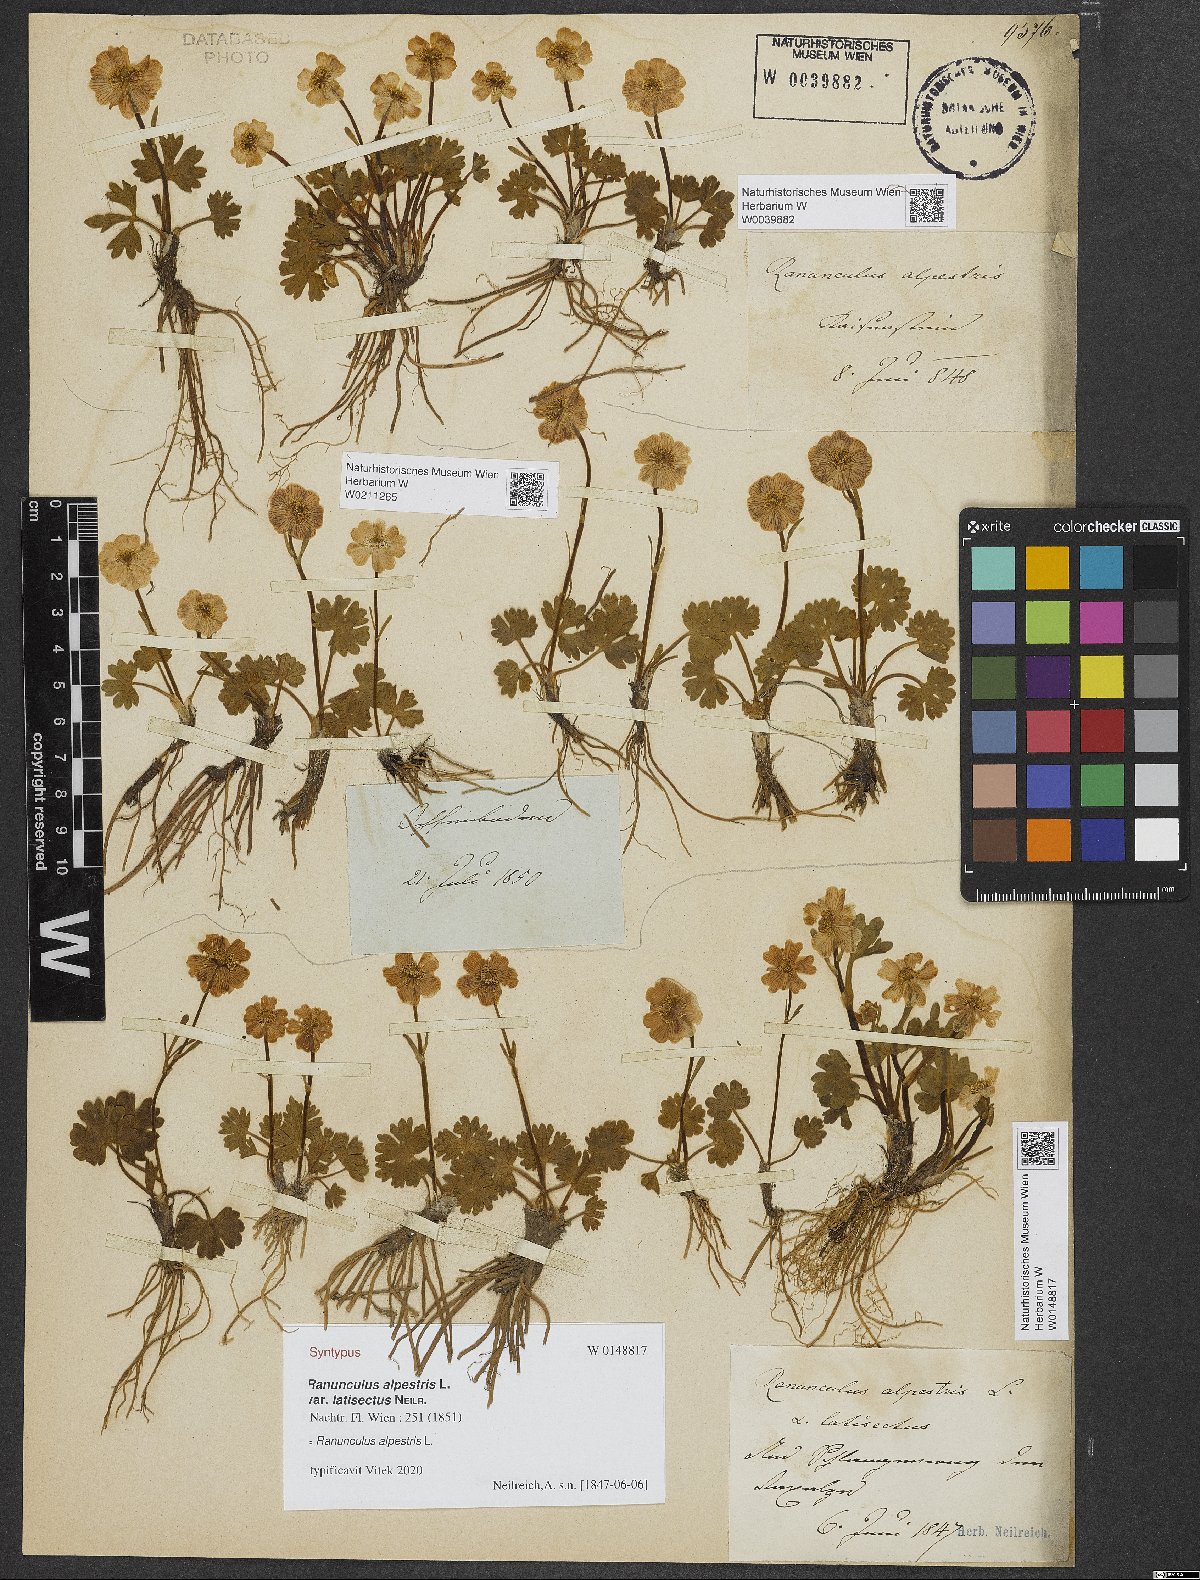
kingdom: Plantae
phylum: Tracheophyta
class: Magnoliopsida
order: Ranunculales
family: Ranunculaceae
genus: Ranunculus
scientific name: Ranunculus alpestris
